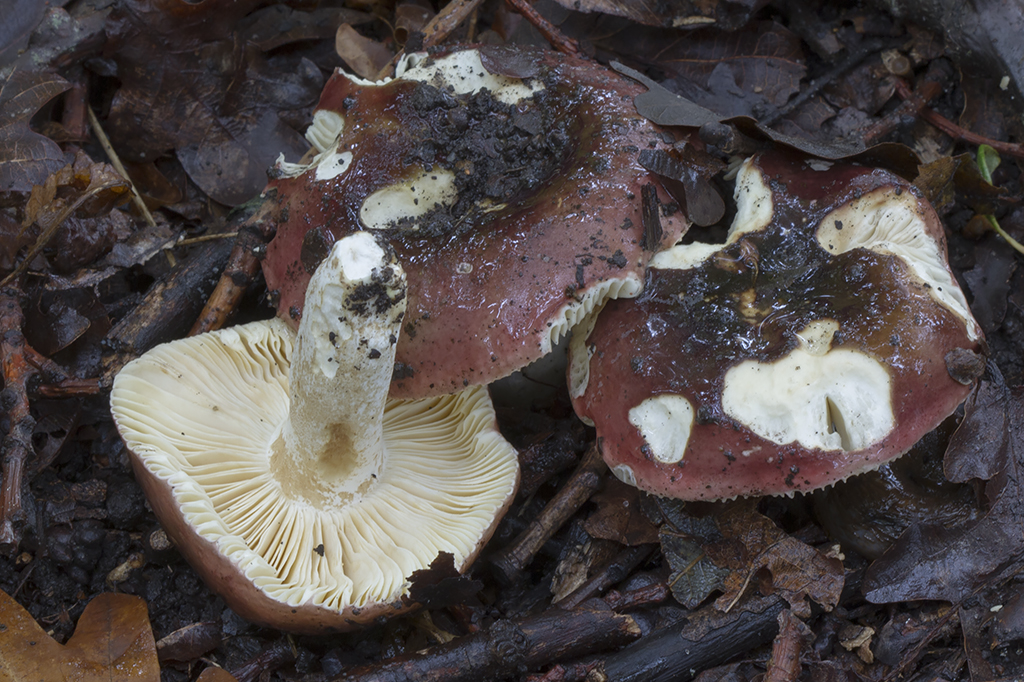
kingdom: Fungi
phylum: Basidiomycota
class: Agaricomycetes
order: Russulales
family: Russulaceae
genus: Russula
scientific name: Russula atropurpurea
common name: purpurbroget skørhat
